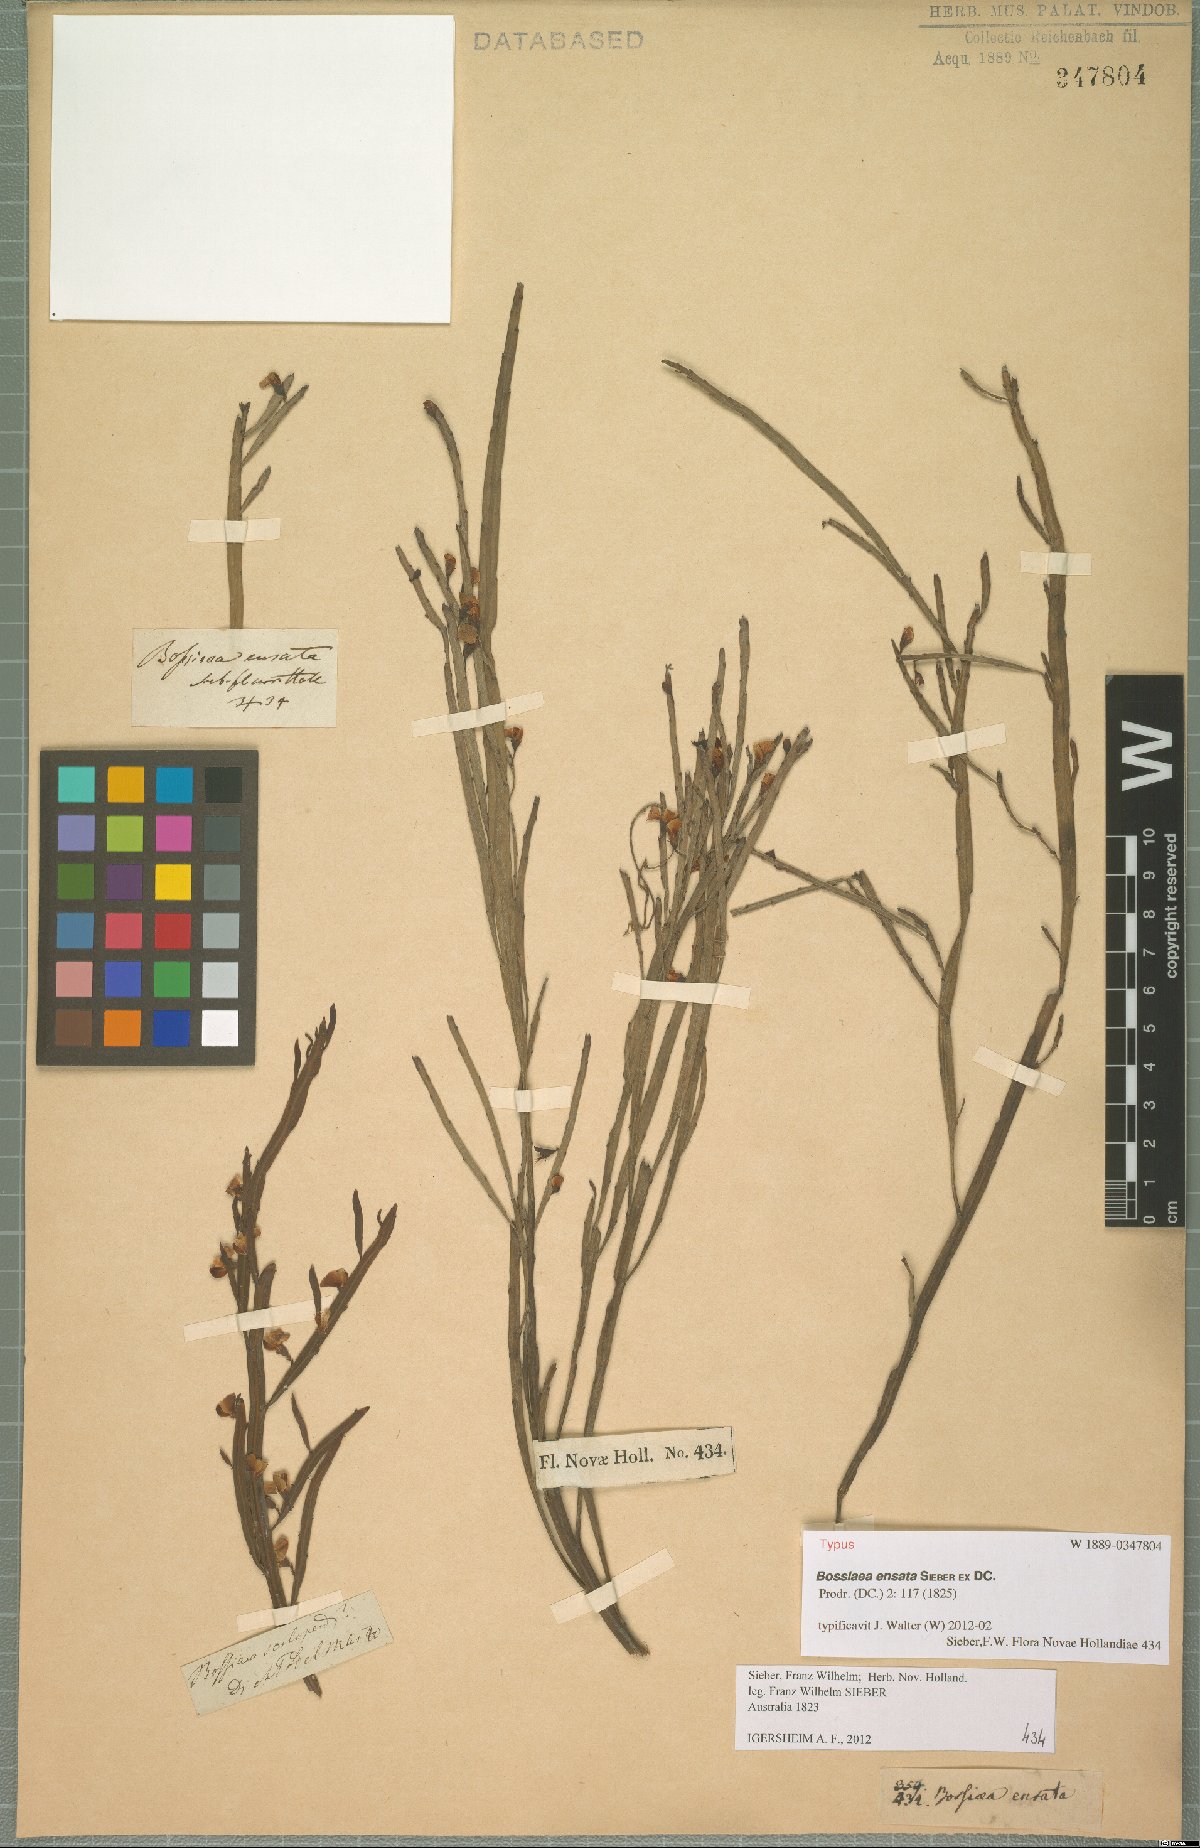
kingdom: Plantae
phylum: Tracheophyta
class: Magnoliopsida
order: Fabales
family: Fabaceae
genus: Bossiaea
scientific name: Bossiaea ensata
